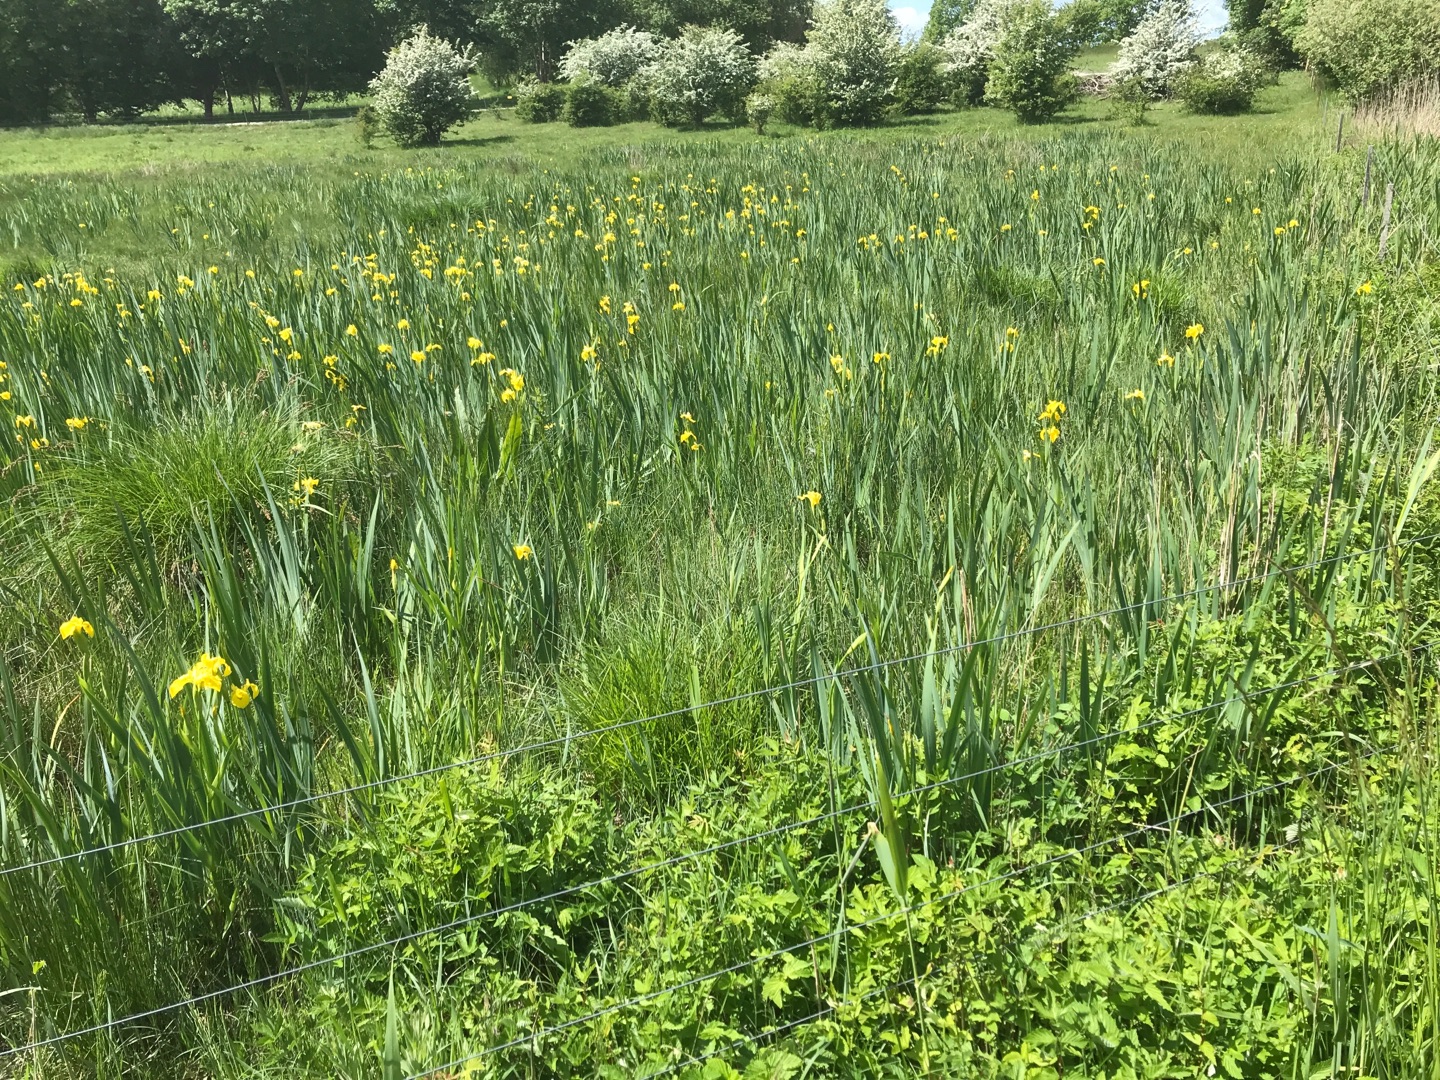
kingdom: Plantae
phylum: Tracheophyta
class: Liliopsida
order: Asparagales
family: Iridaceae
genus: Iris
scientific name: Iris pseudacorus
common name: Gul iris
